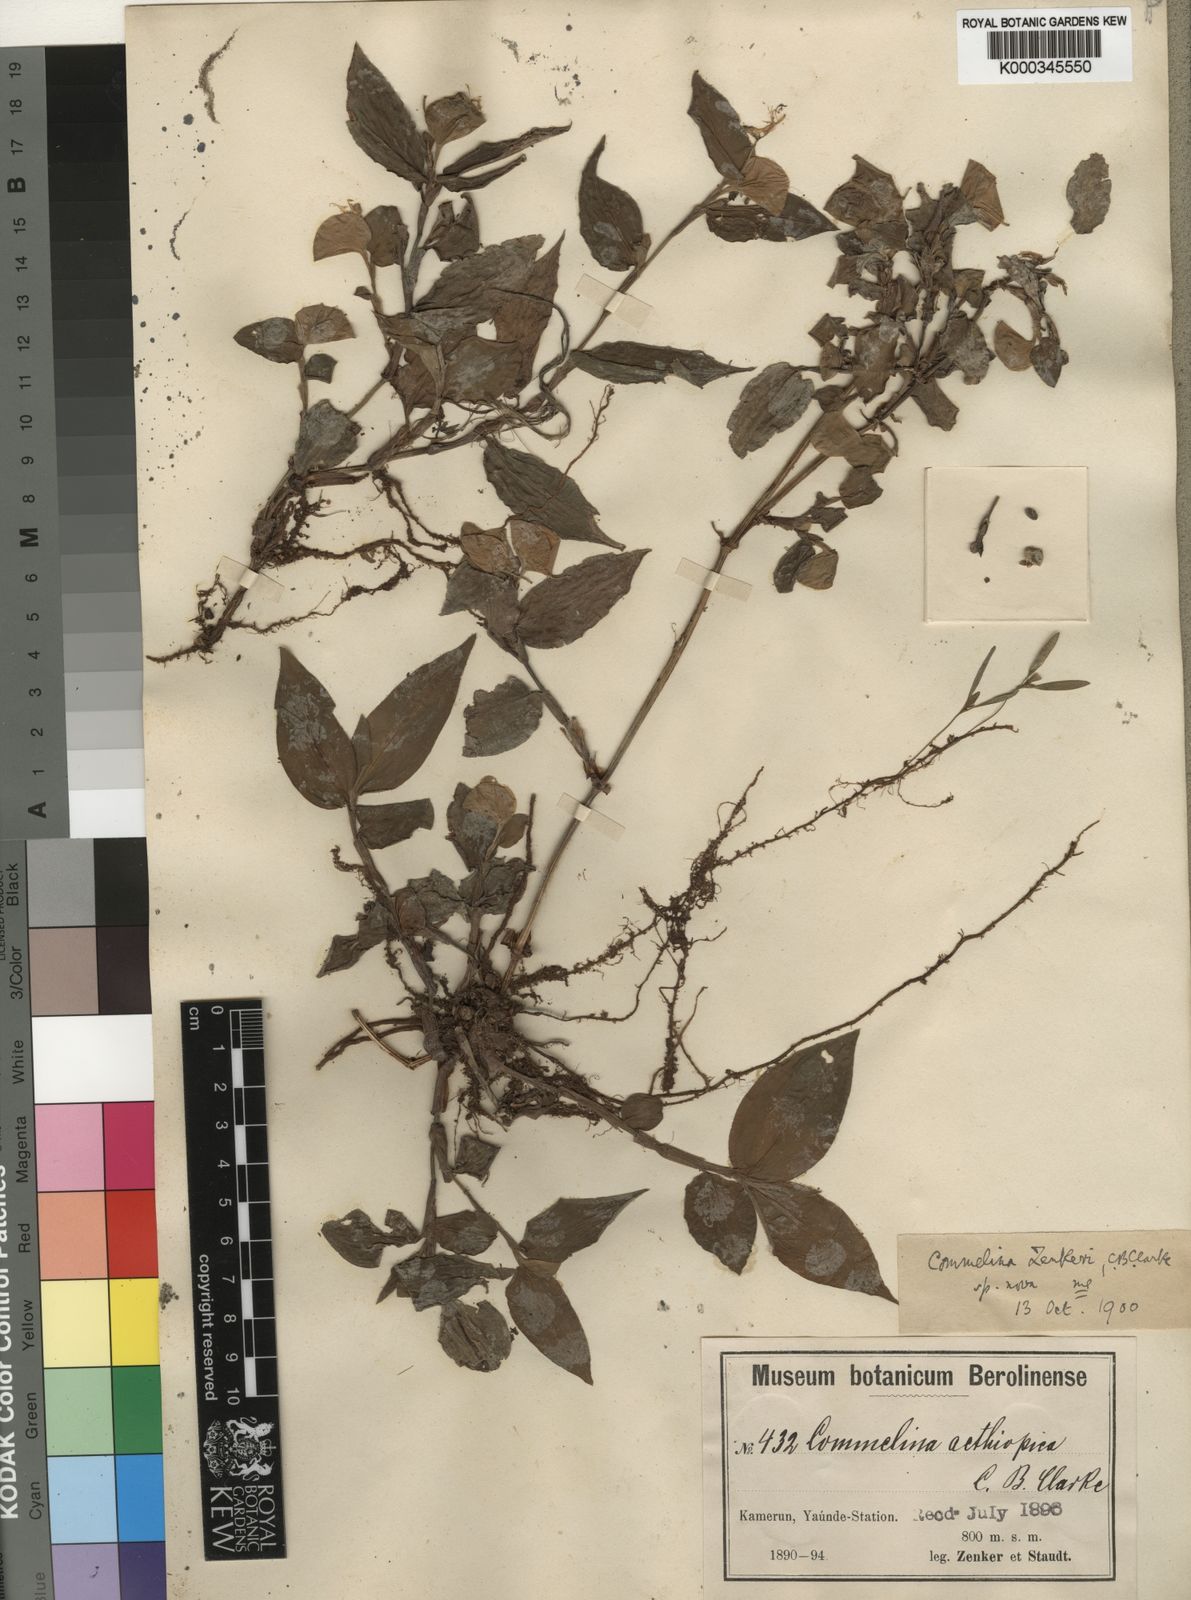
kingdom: Plantae
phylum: Tracheophyta
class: Liliopsida
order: Commelinales
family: Commelinaceae
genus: Commelina
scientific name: Commelina zenkeri
